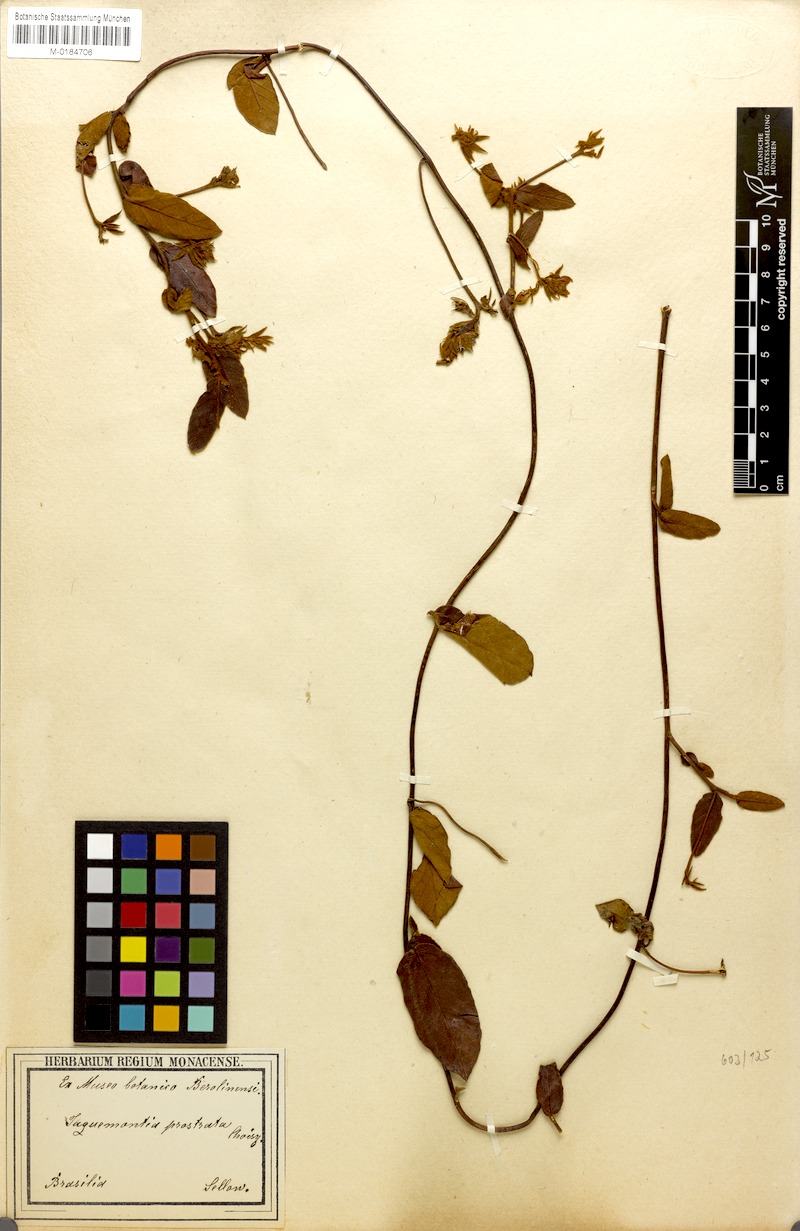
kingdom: Plantae
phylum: Tracheophyta
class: Magnoliopsida
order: Solanales
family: Convolvulaceae
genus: Jacquemontia
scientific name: Jacquemontia prostrata
